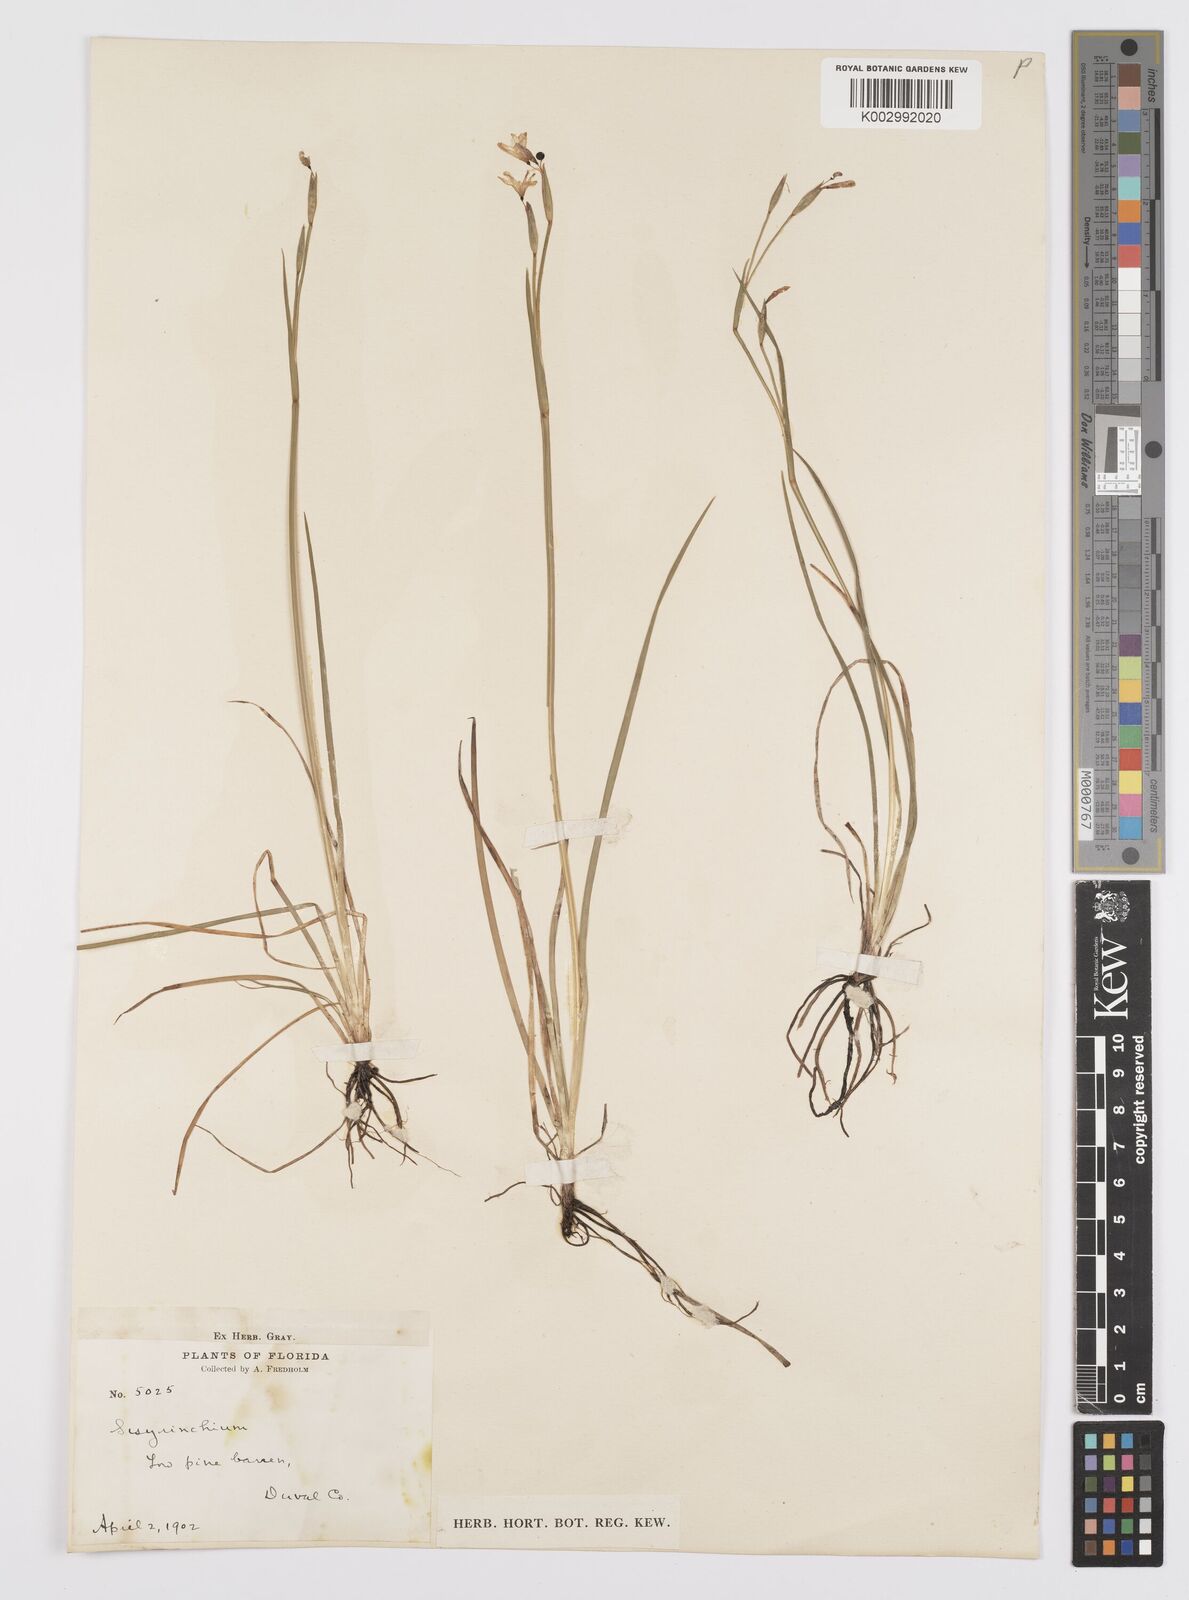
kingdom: Plantae
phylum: Tracheophyta
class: Liliopsida
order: Asparagales
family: Iridaceae
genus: Sisyrinchium
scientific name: Sisyrinchium
